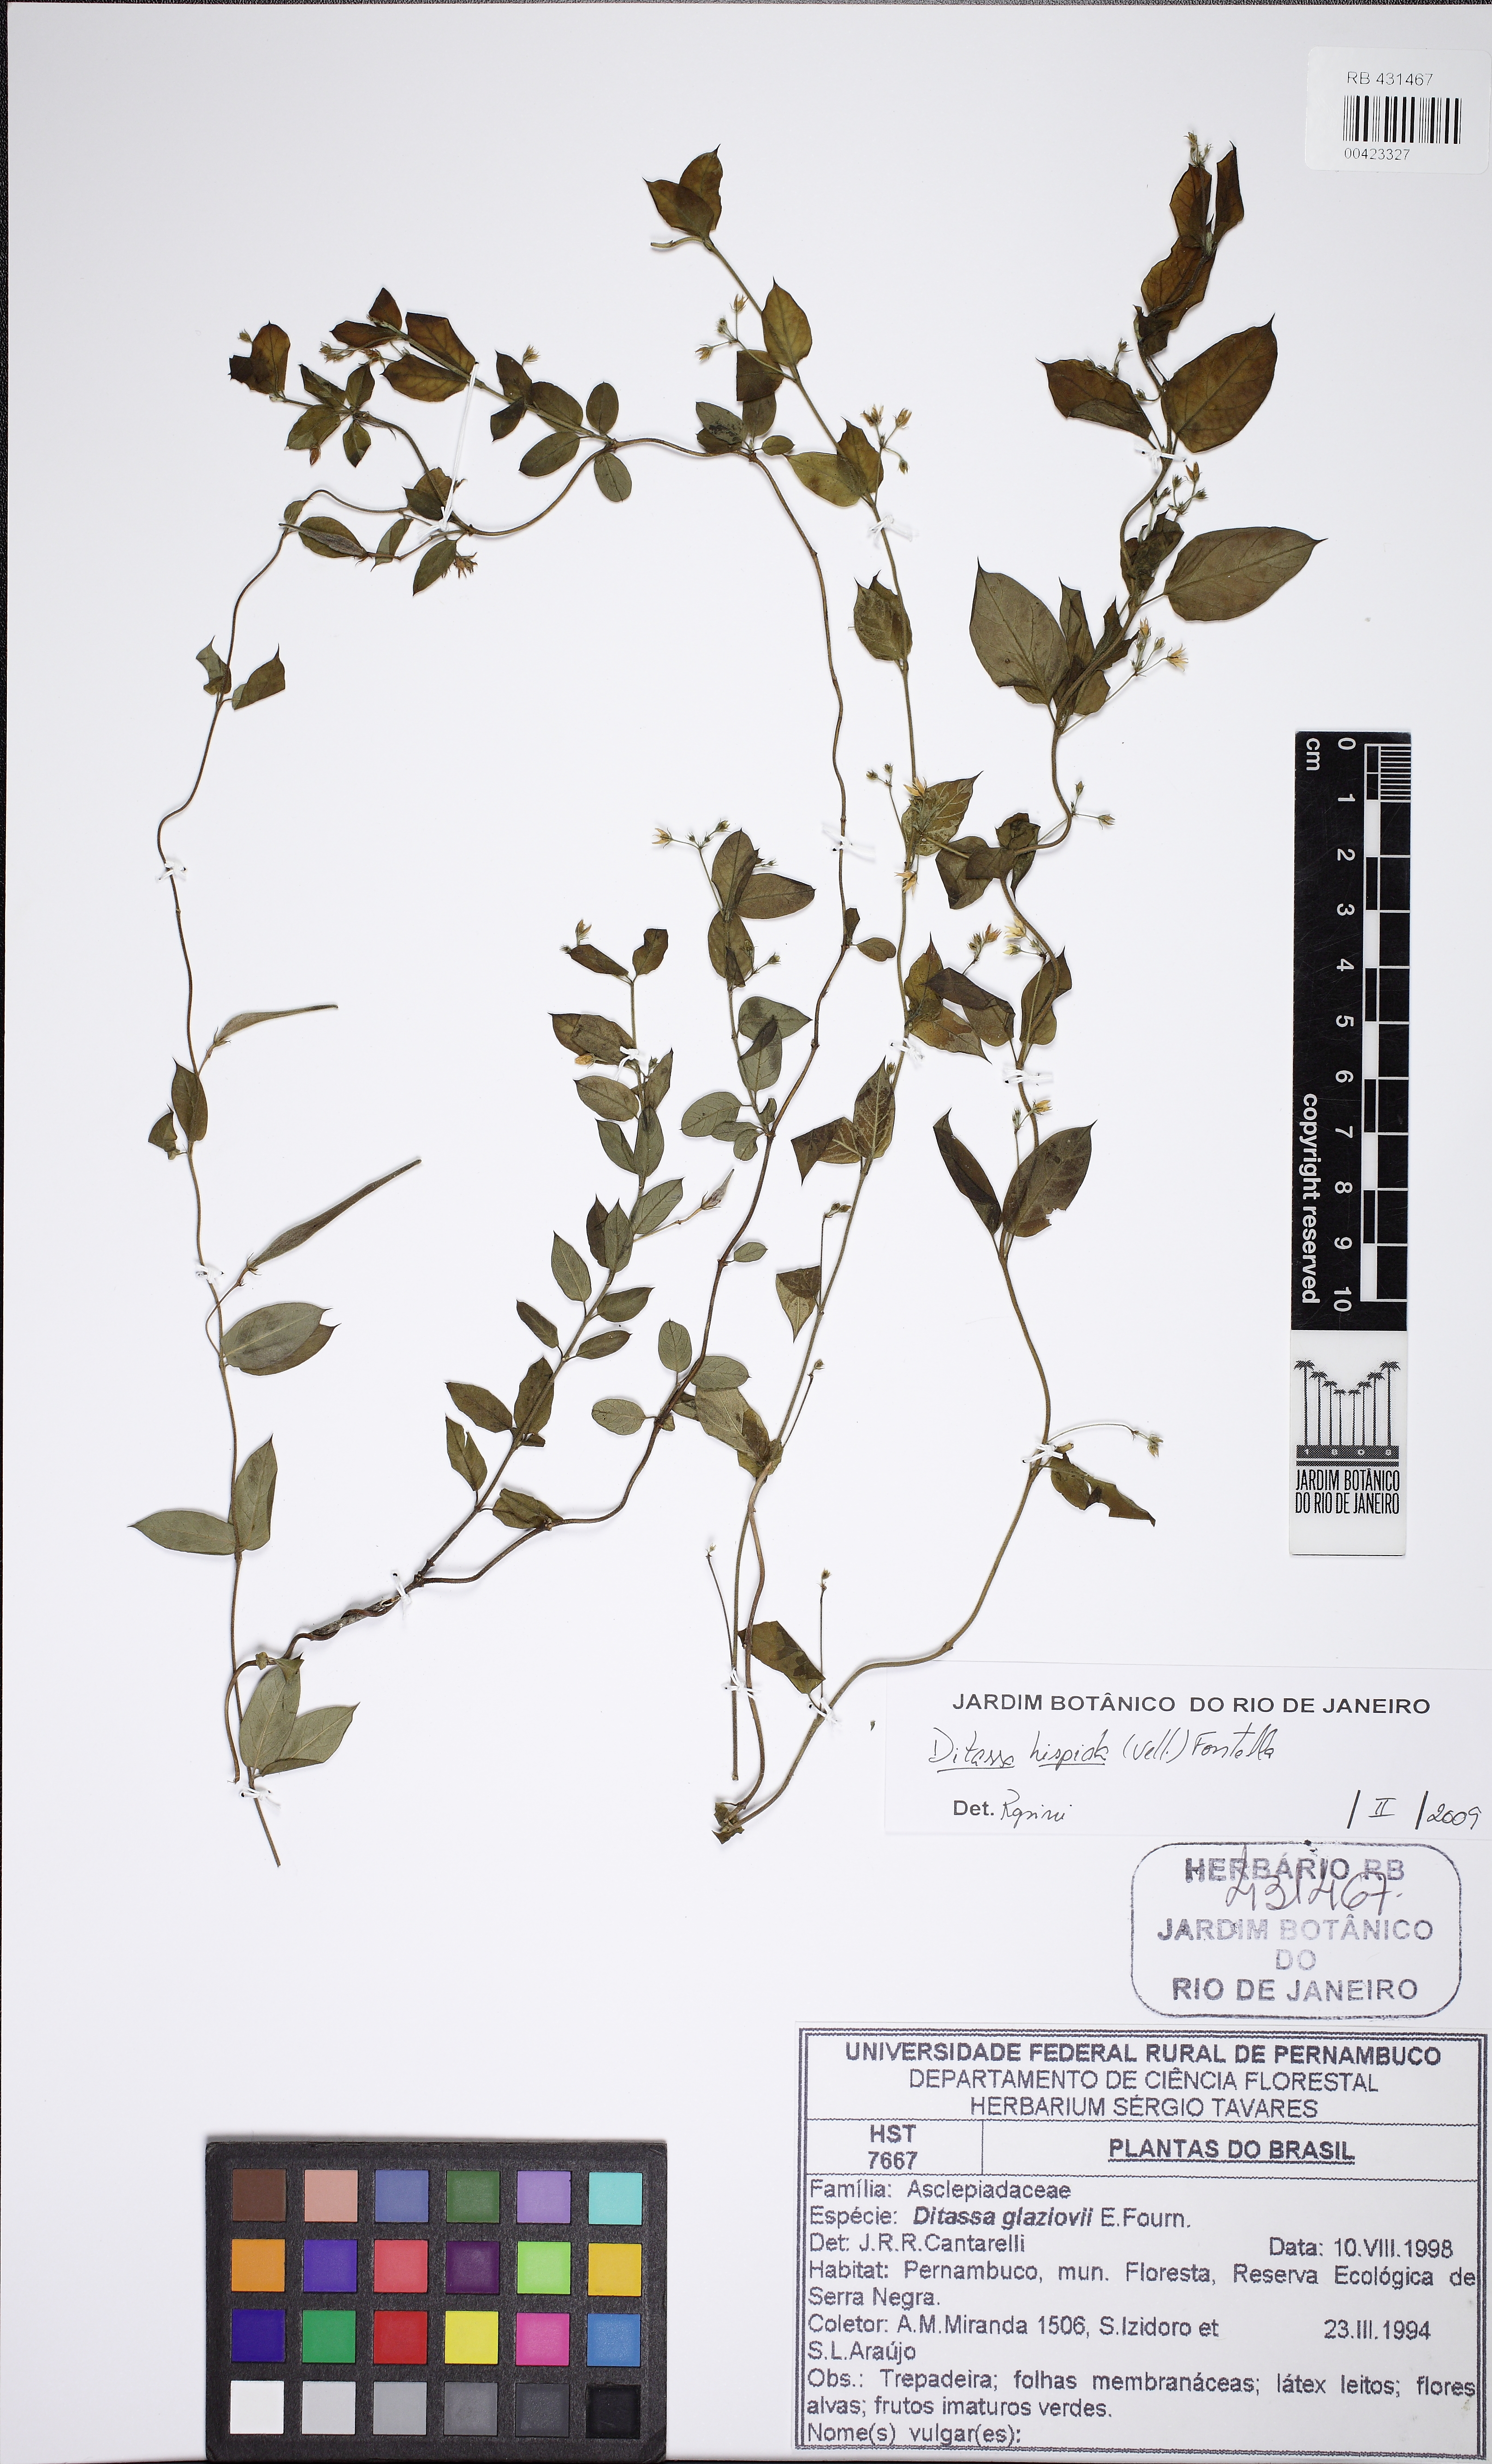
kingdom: Plantae
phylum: Tracheophyta
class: Magnoliopsida
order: Gentianales
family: Apocynaceae
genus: Ditassa
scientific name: Ditassa hispida
